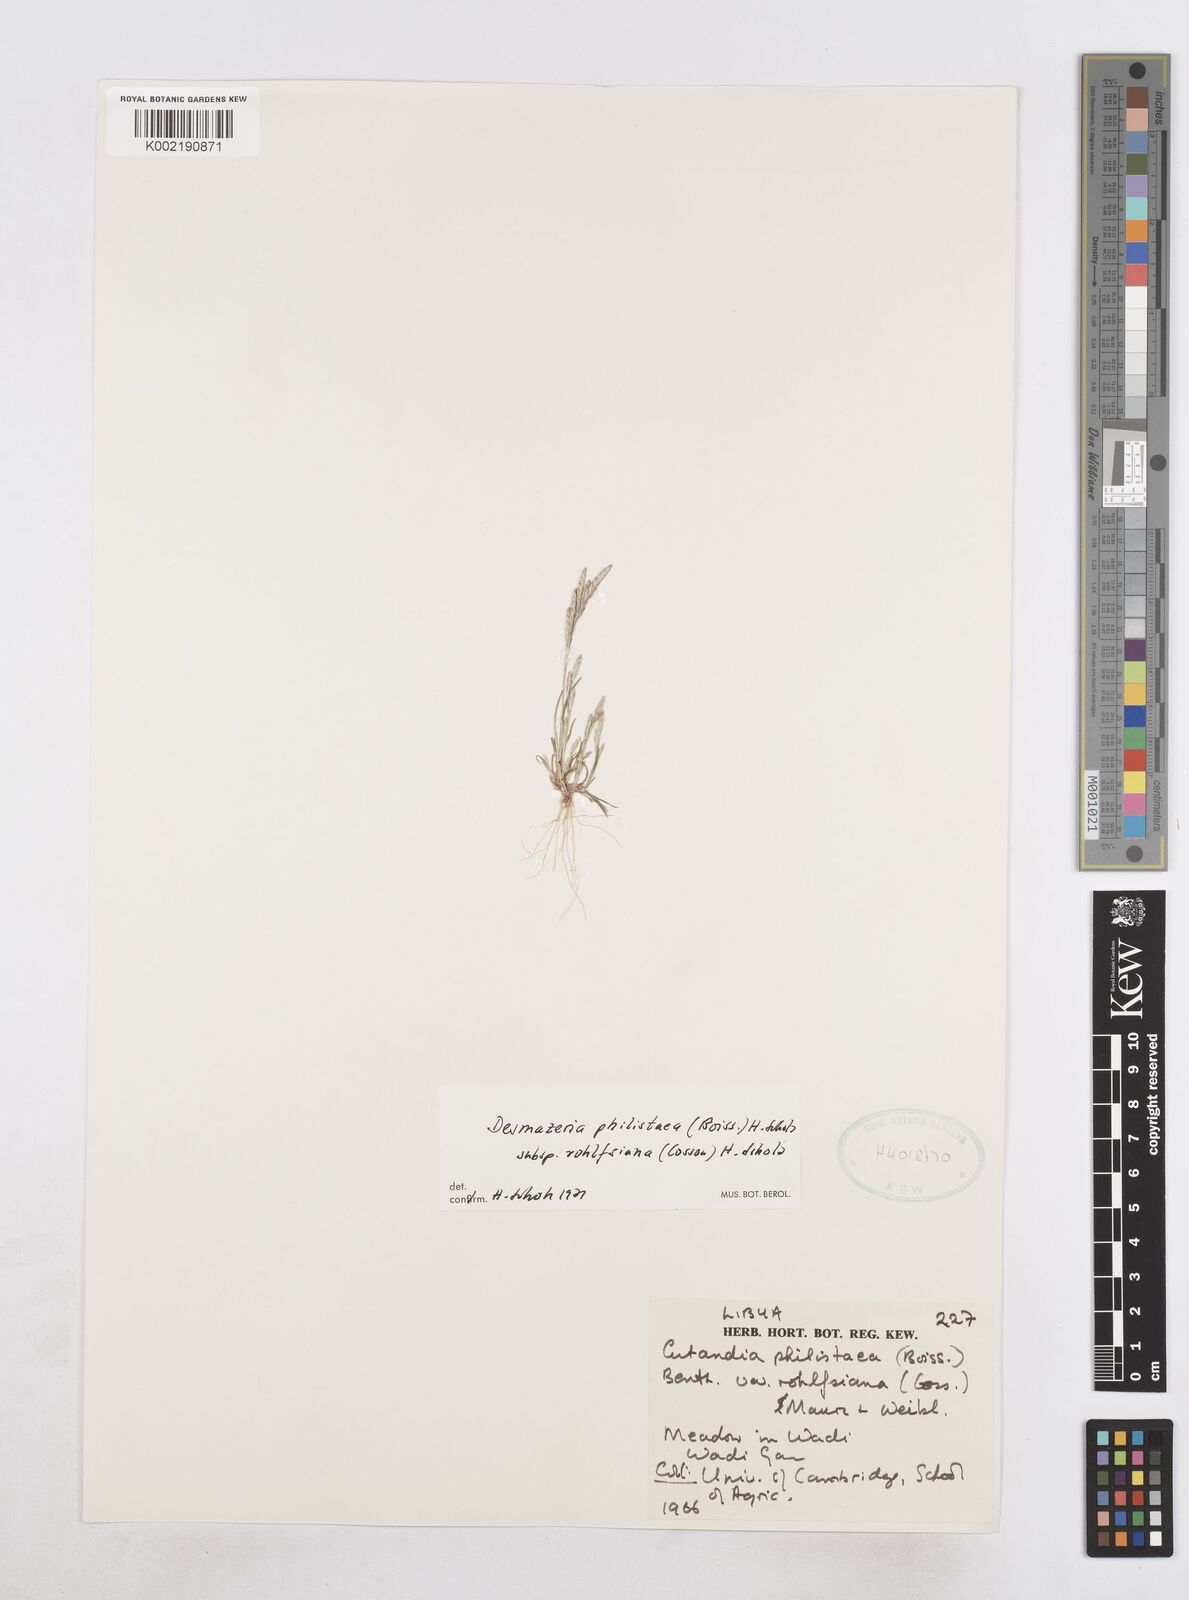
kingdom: Plantae
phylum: Tracheophyta
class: Liliopsida
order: Poales
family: Poaceae
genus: Desmazeria
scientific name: Desmazeria philistaea
